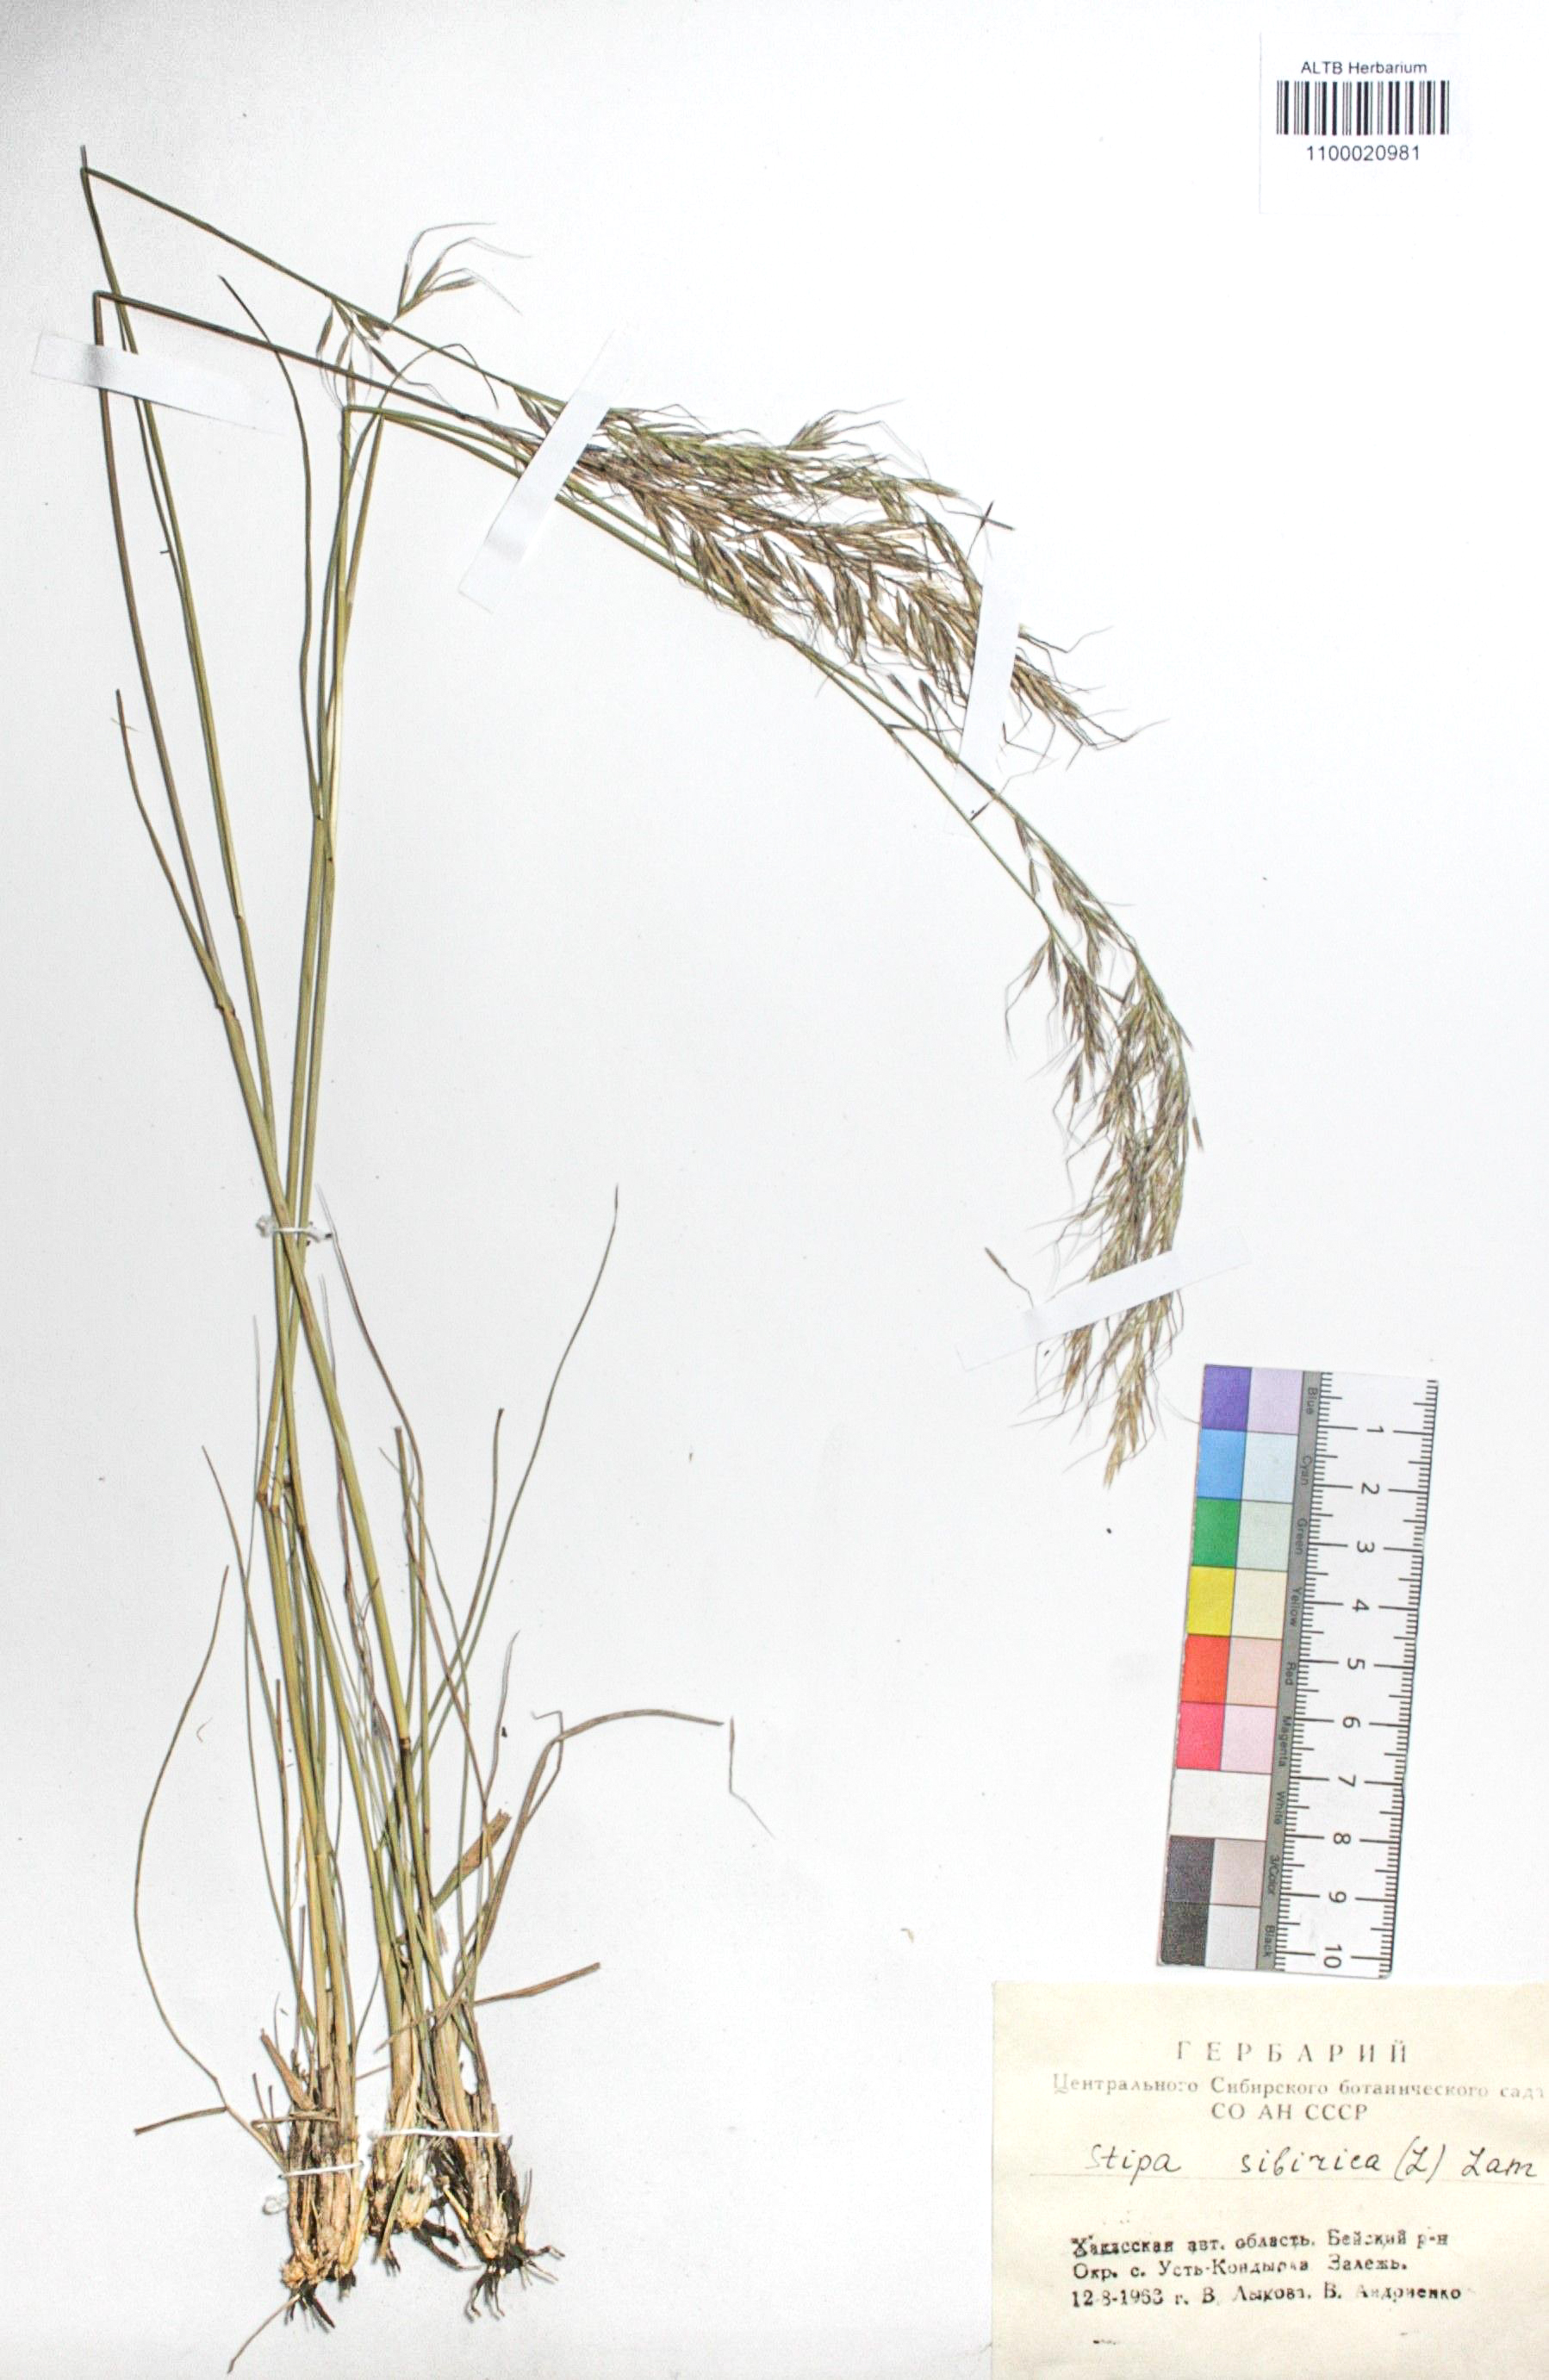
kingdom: Plantae
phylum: Tracheophyta
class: Liliopsida
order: Poales
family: Poaceae
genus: Achnatherum
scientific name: Achnatherum sibiricum
